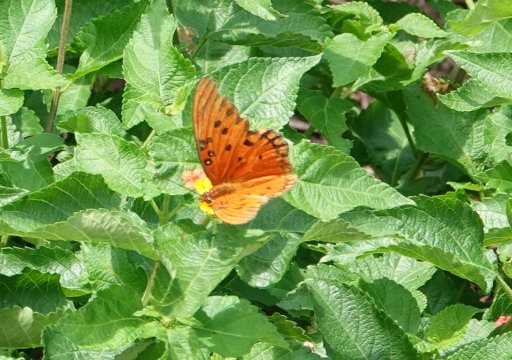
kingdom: Animalia
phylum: Arthropoda
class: Insecta
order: Lepidoptera
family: Nymphalidae
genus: Dione
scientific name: Dione vanillae
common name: Gulf Fritillary
